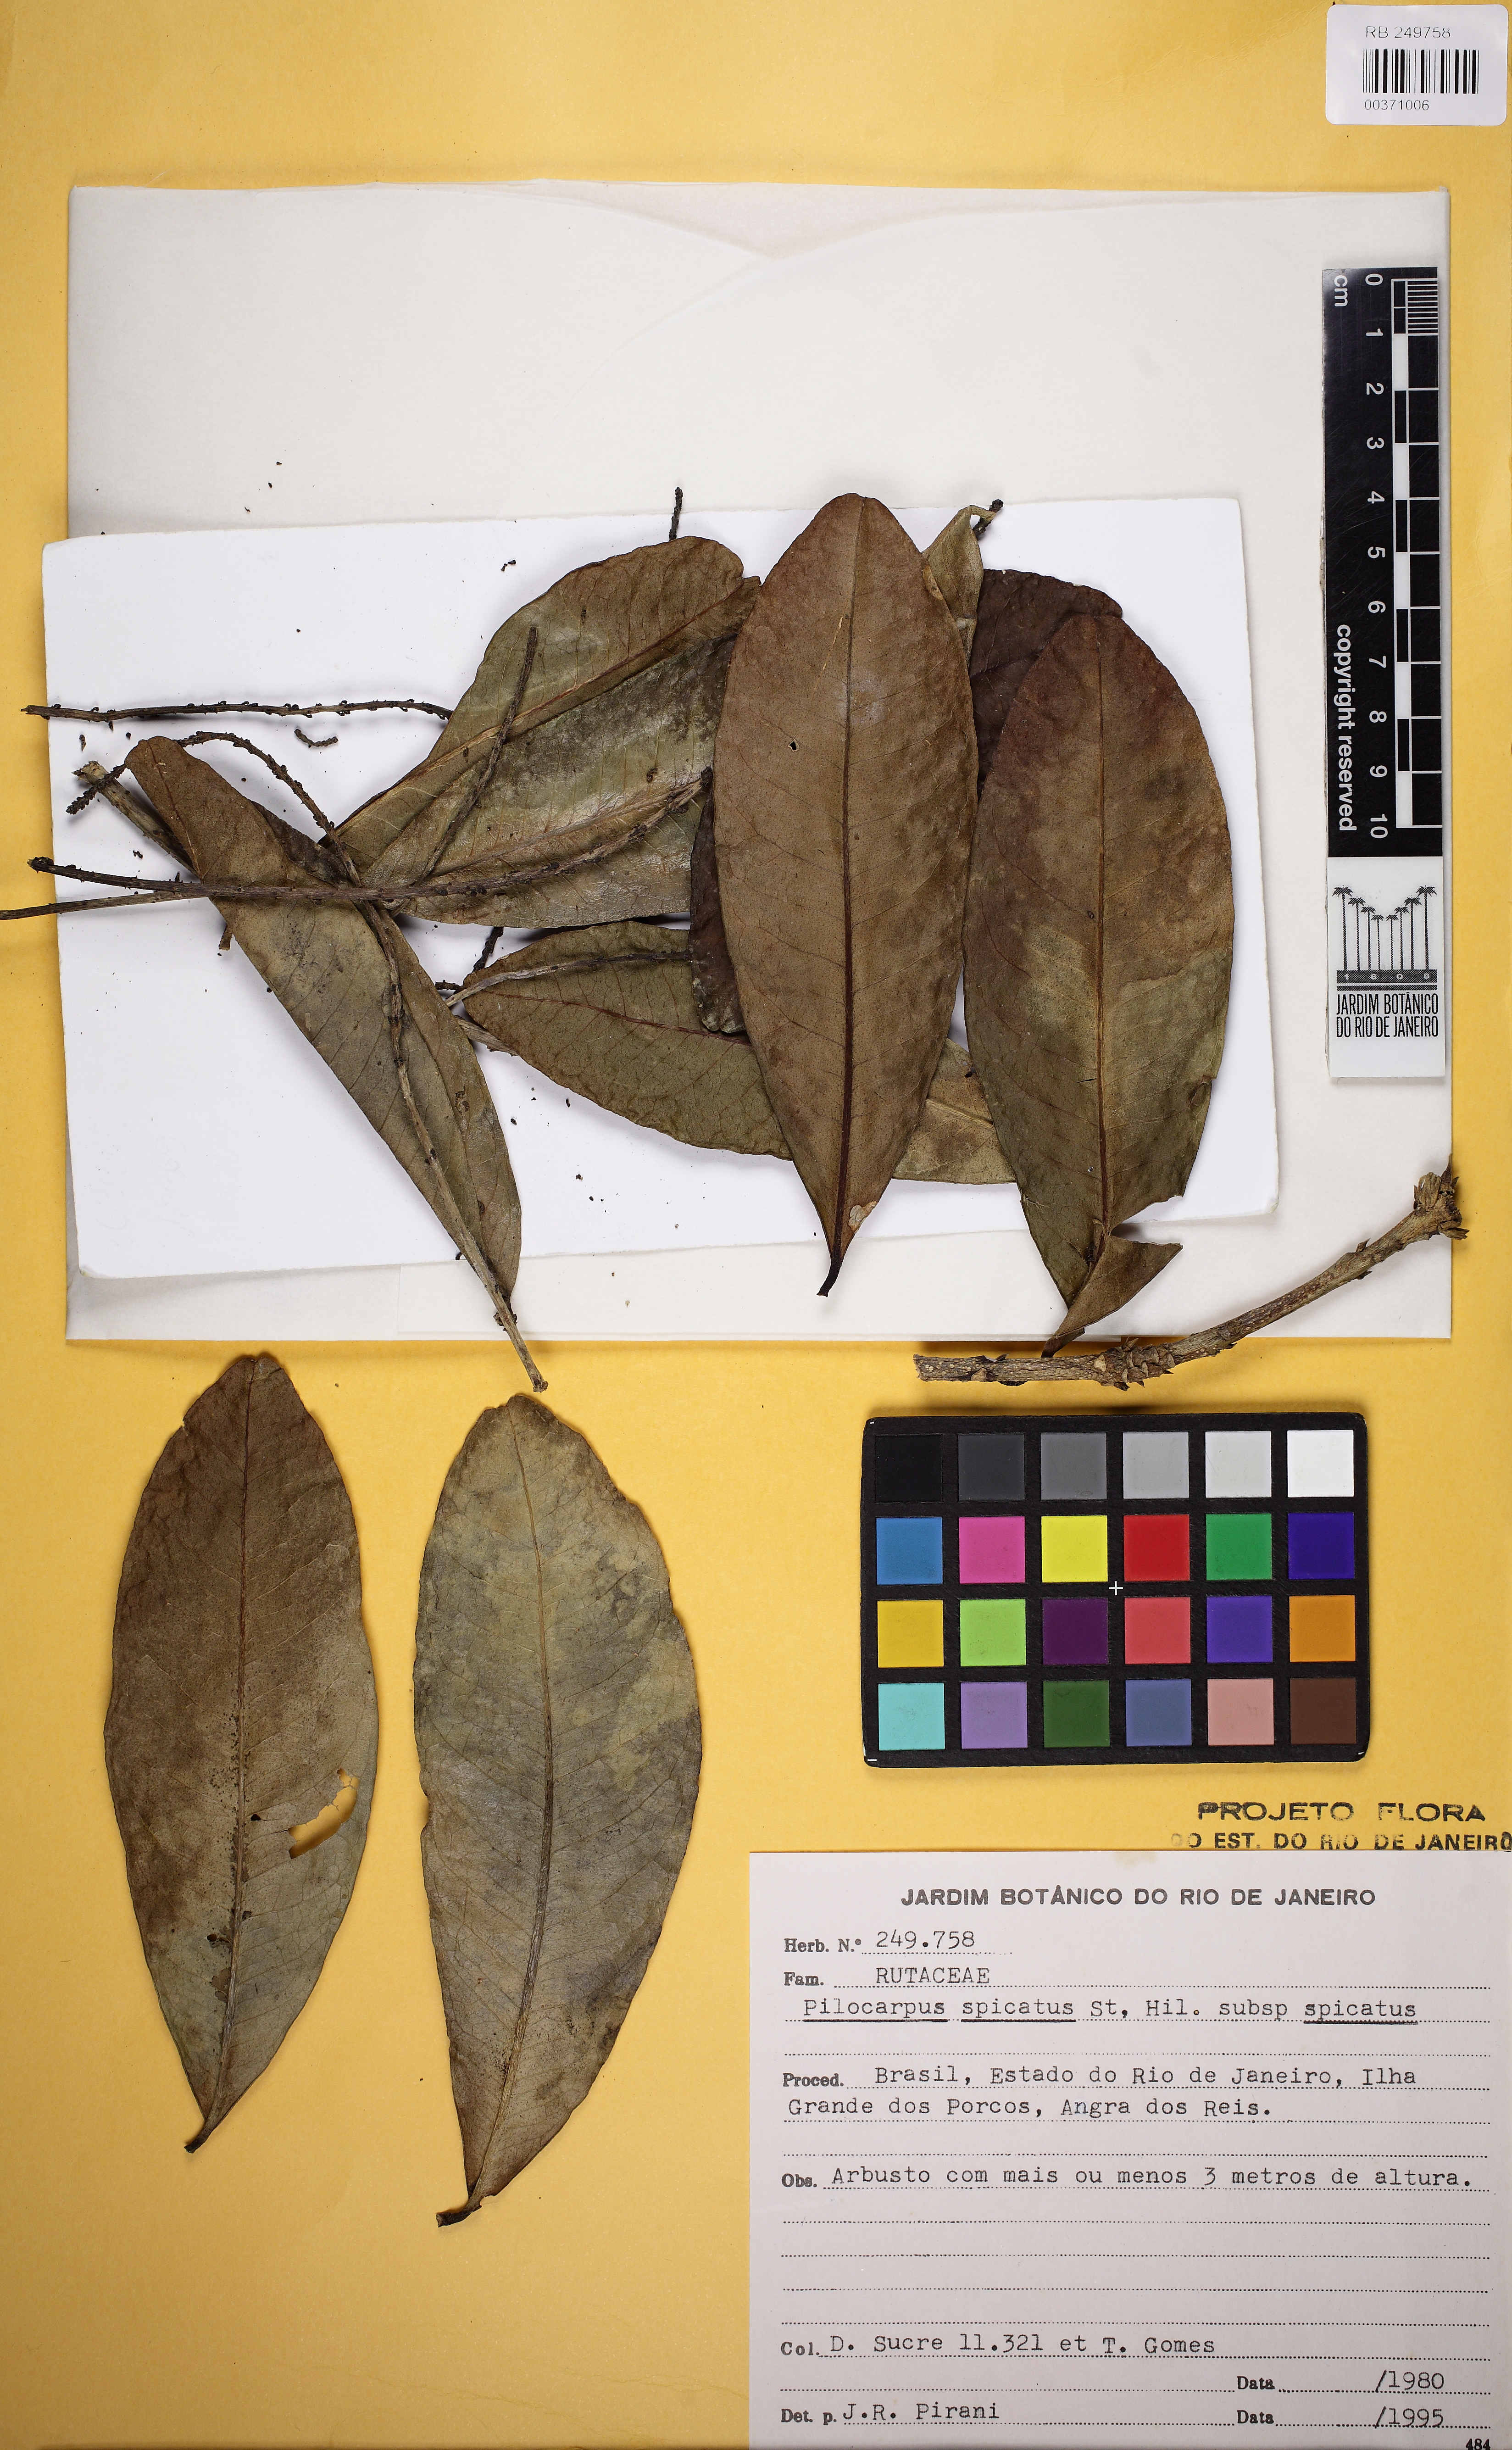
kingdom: Plantae
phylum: Tracheophyta
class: Magnoliopsida
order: Sapindales
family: Rutaceae
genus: Pilocarpus
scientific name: Pilocarpus spicatus
